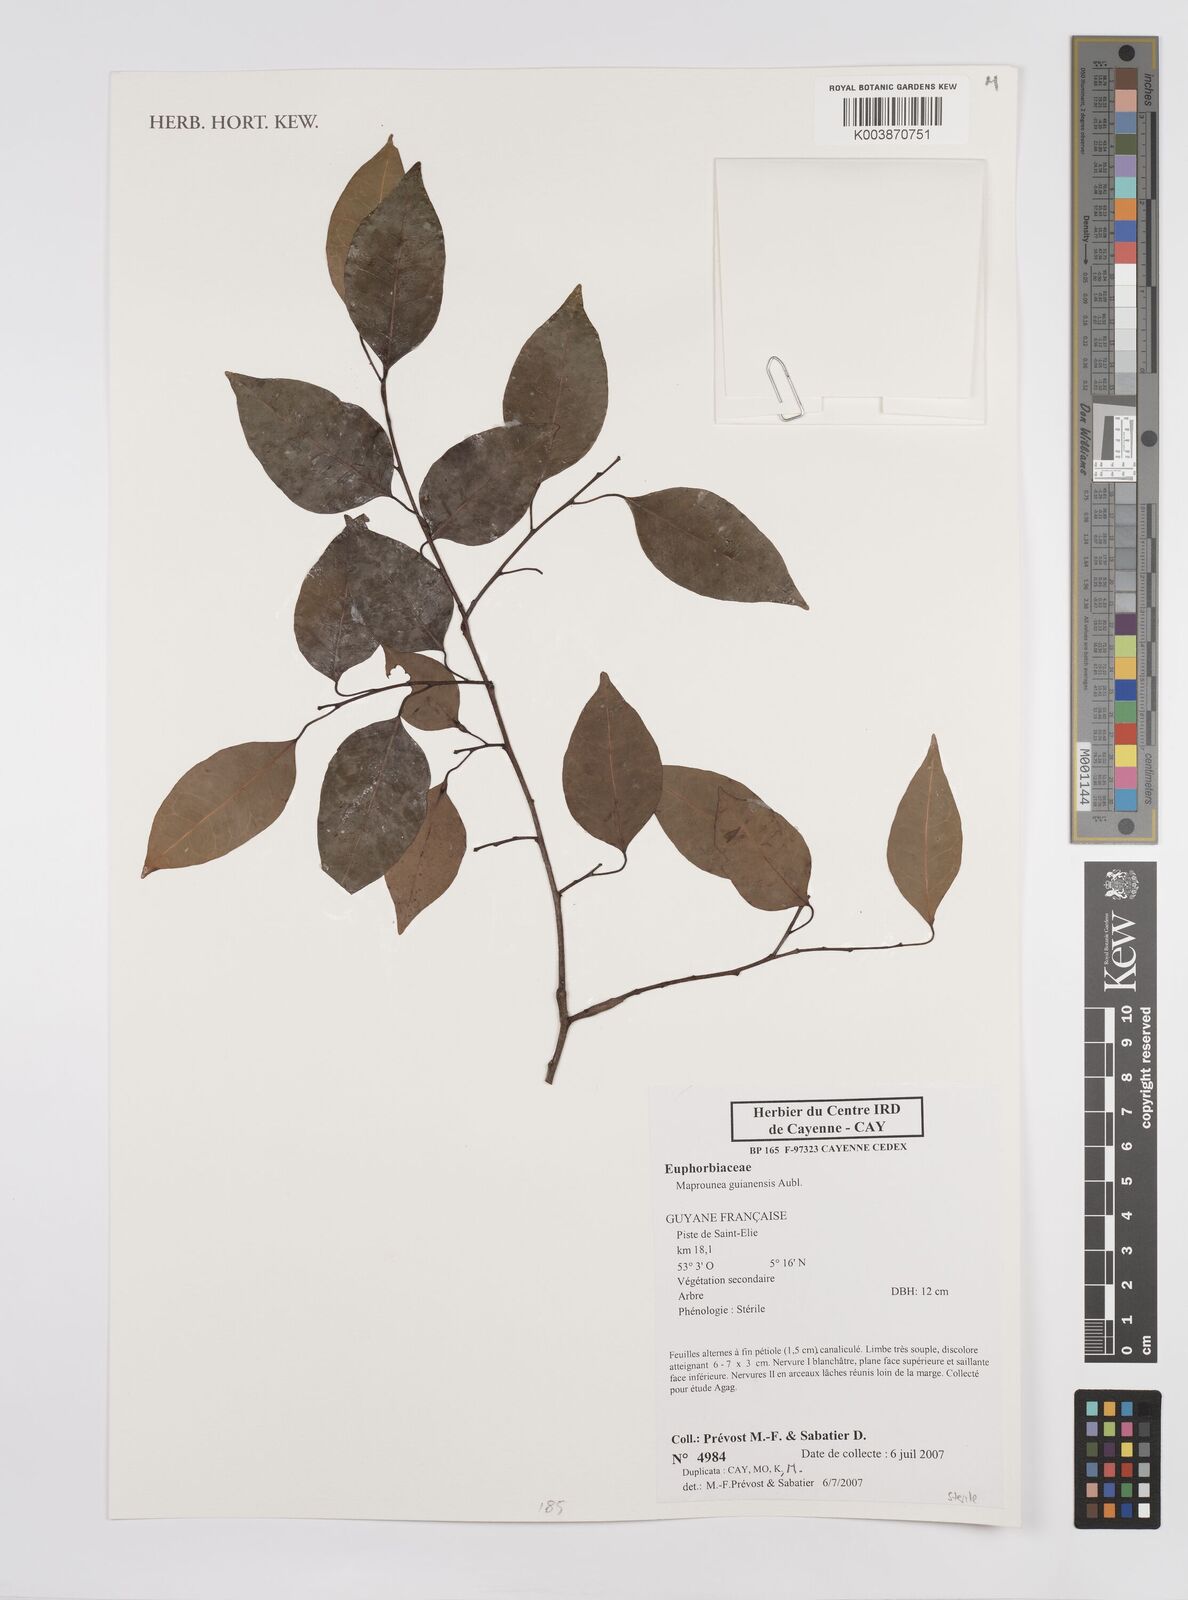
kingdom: Plantae
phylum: Tracheophyta
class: Magnoliopsida
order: Malpighiales
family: Euphorbiaceae
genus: Maprounea
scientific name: Maprounea guianensis
